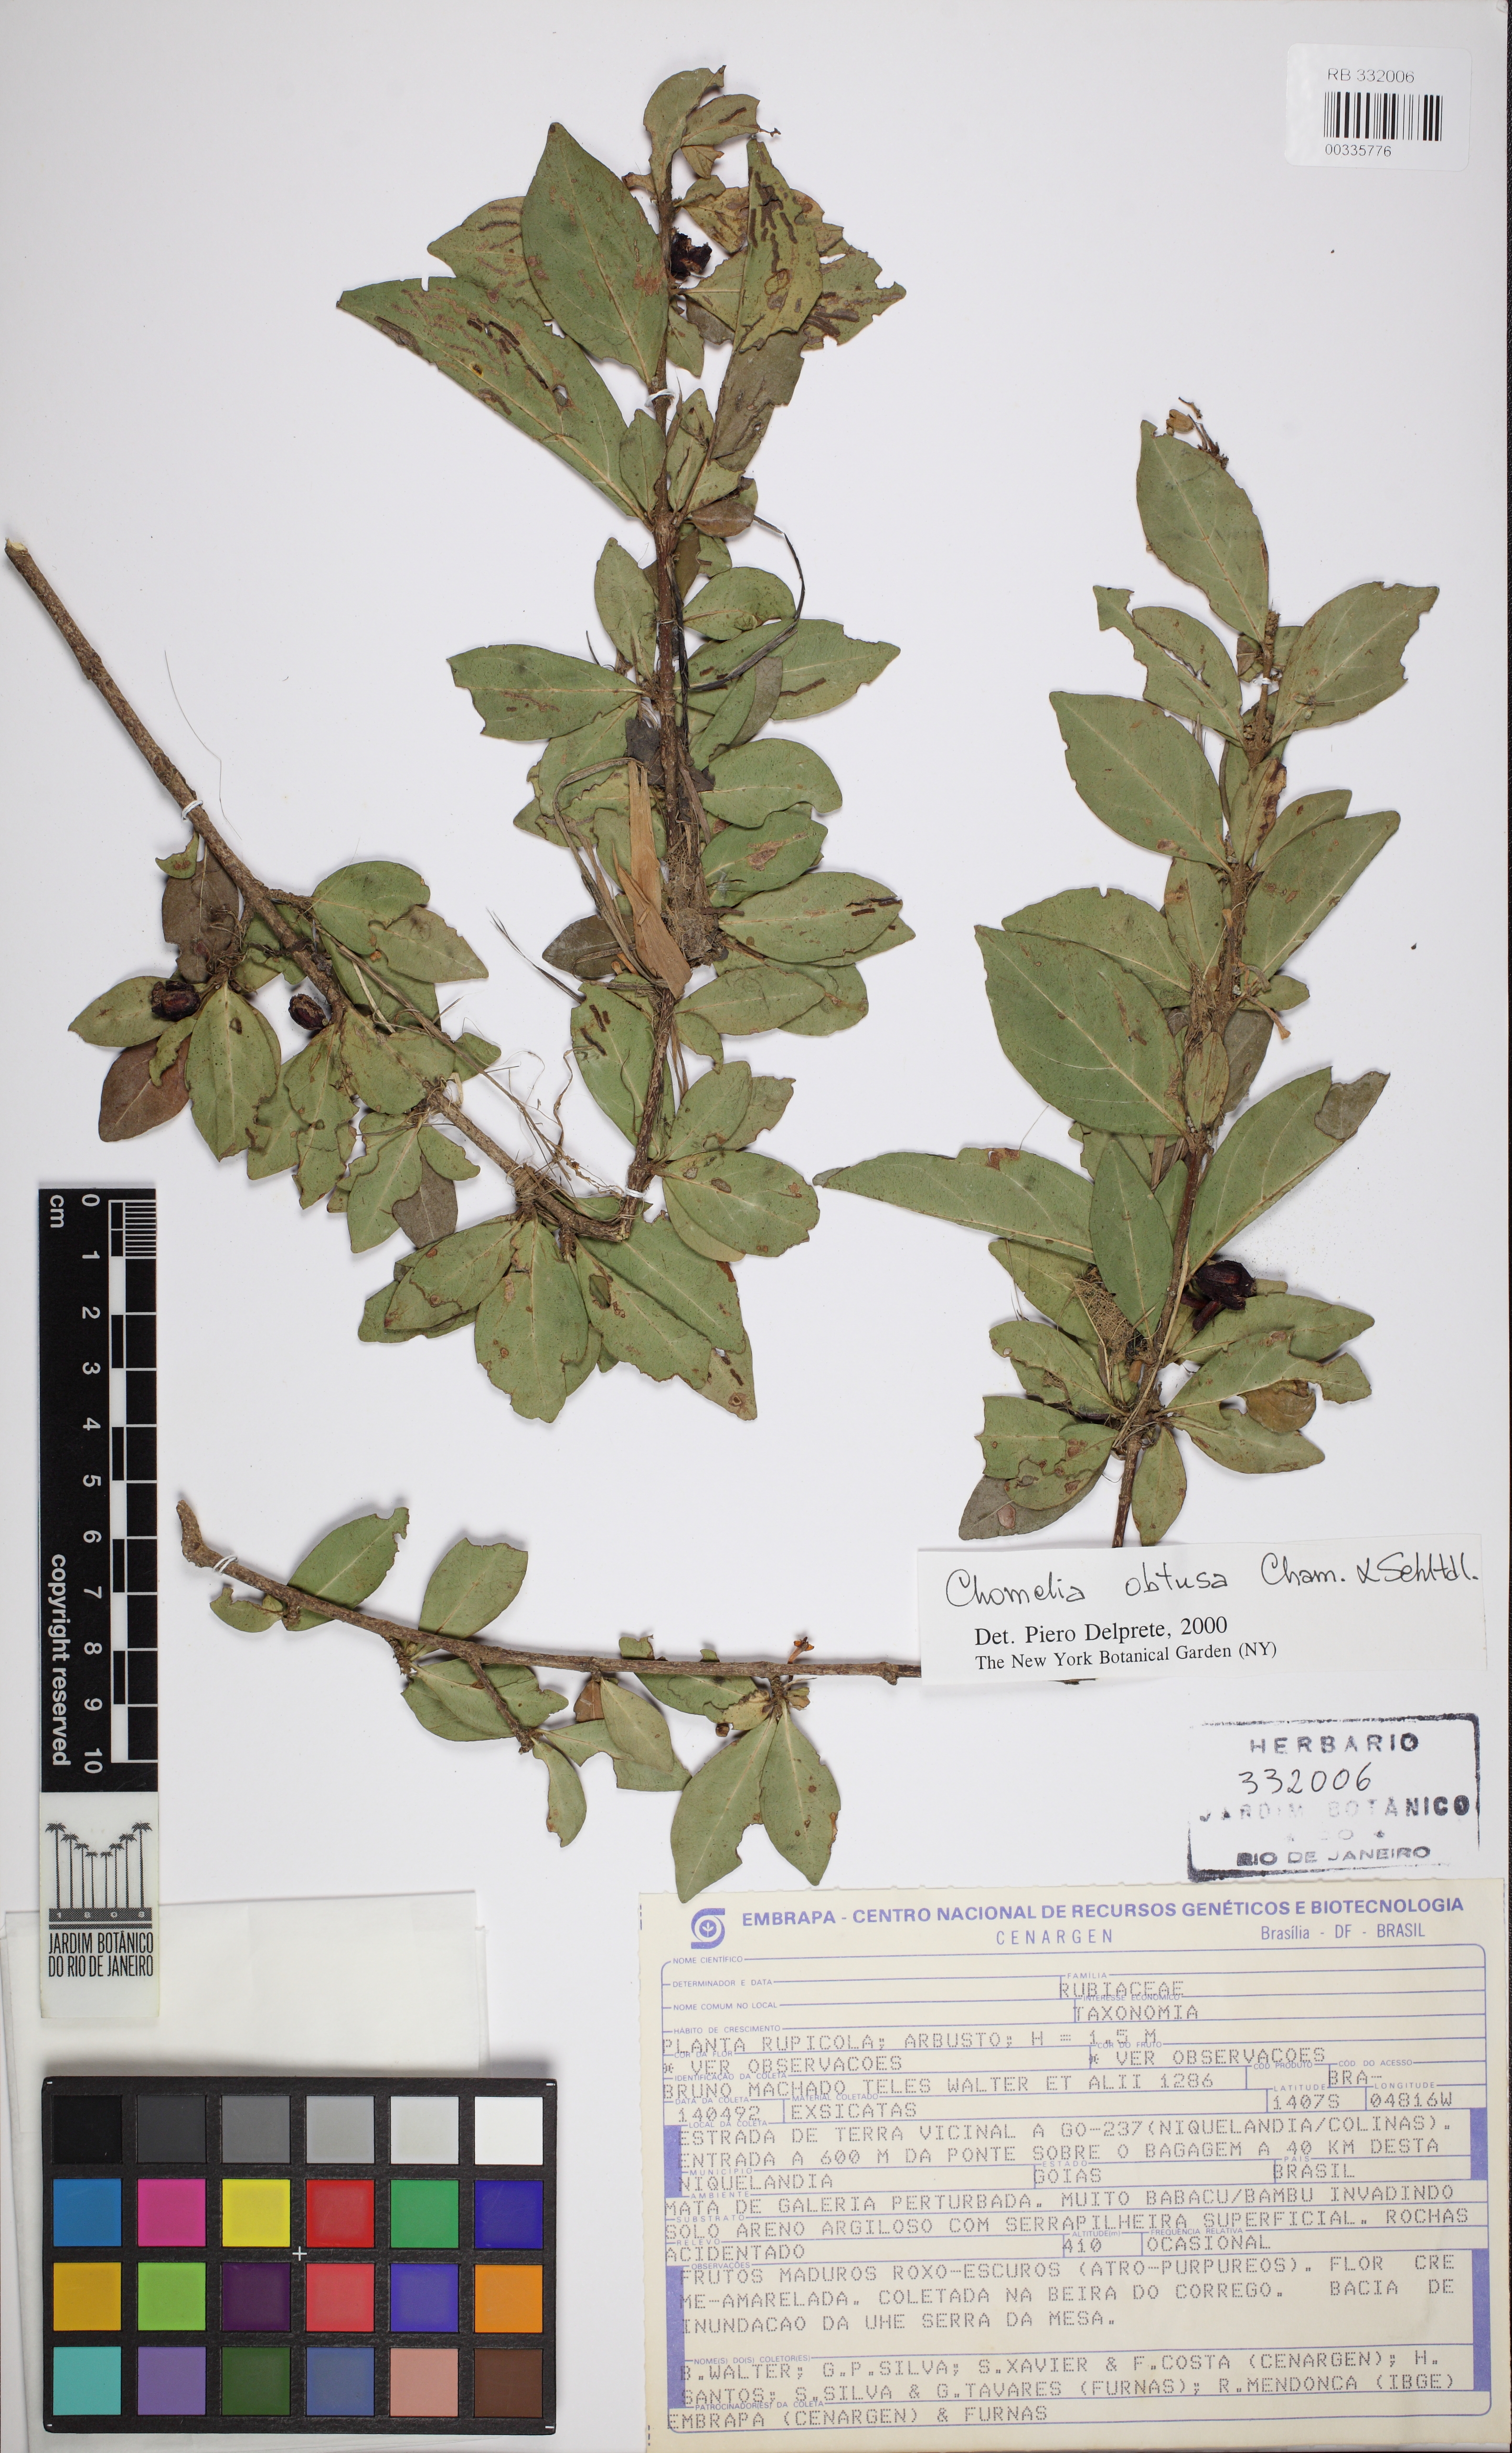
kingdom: Plantae
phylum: Tracheophyta
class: Magnoliopsida
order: Gentianales
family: Rubiaceae
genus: Chomelia
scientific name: Chomelia obtusa
